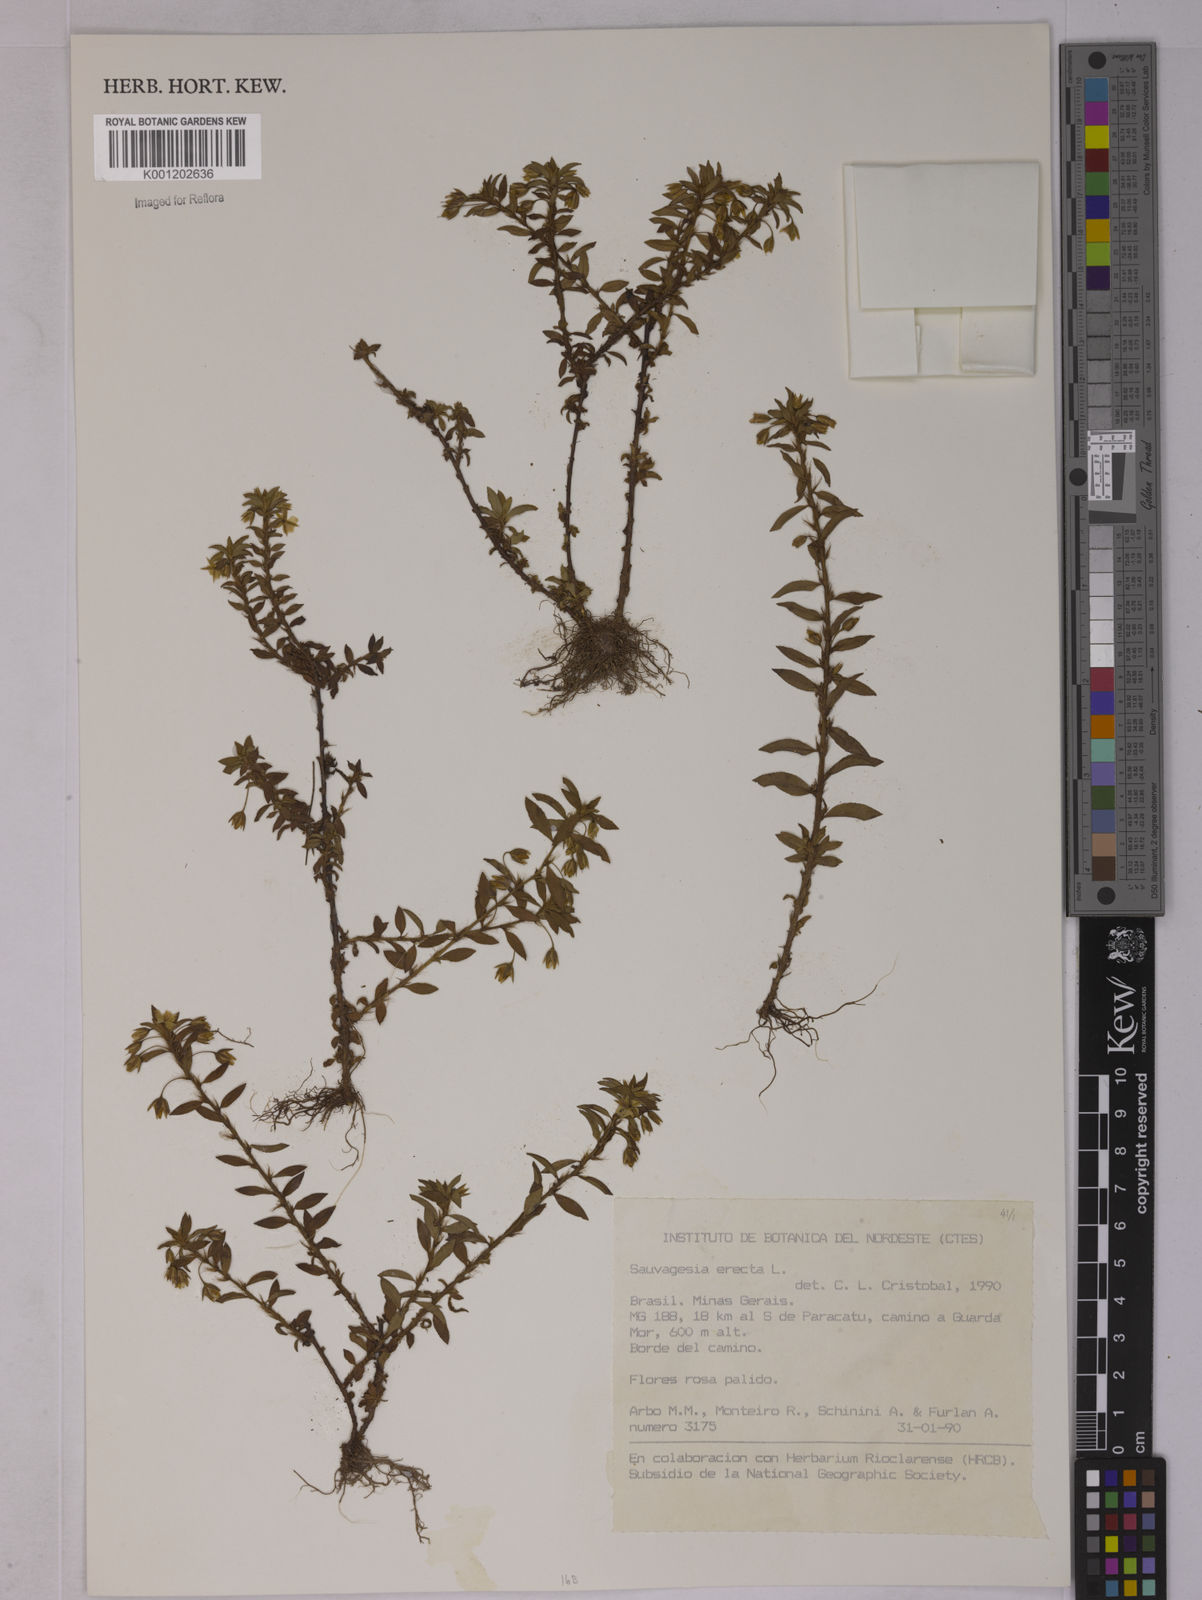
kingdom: Plantae
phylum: Tracheophyta
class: Magnoliopsida
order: Malpighiales
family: Ochnaceae
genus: Sauvagesia
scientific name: Sauvagesia erecta
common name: Creole tea
